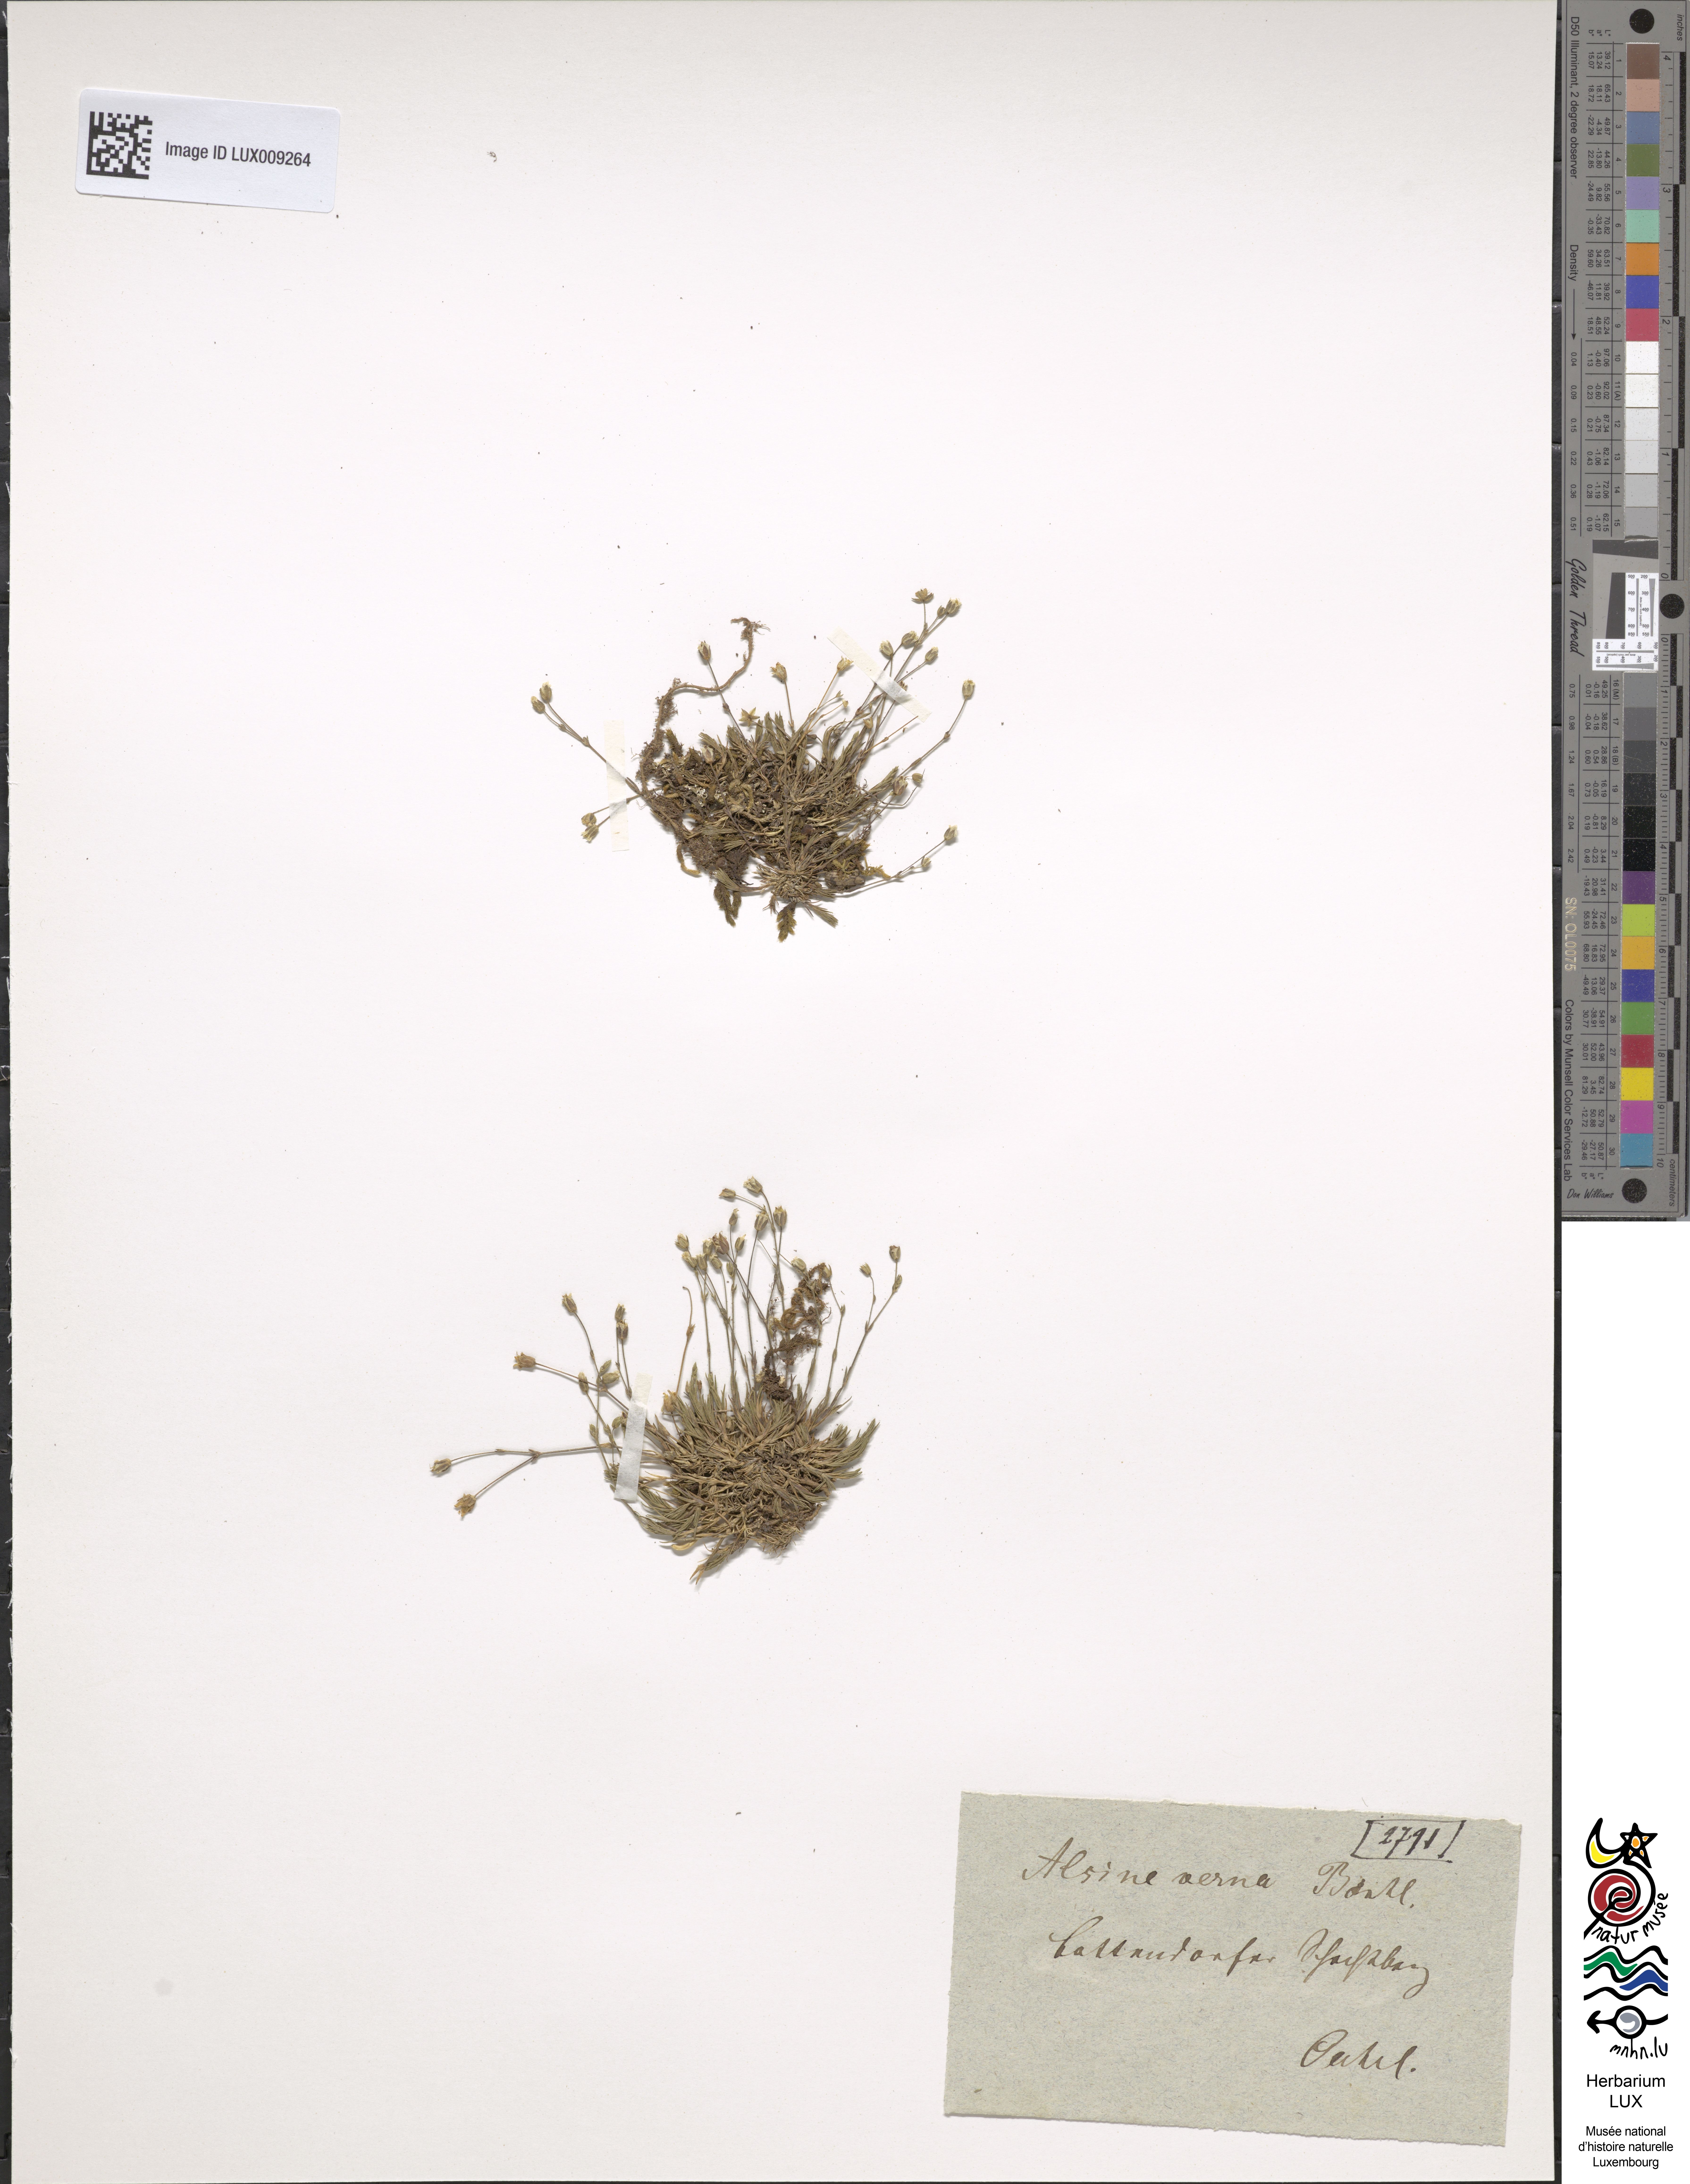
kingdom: Plantae
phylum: Tracheophyta
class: Magnoliopsida
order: Caryophyllales
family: Caryophyllaceae
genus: Sabulina
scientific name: Sabulina verna
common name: Spring sandwort
